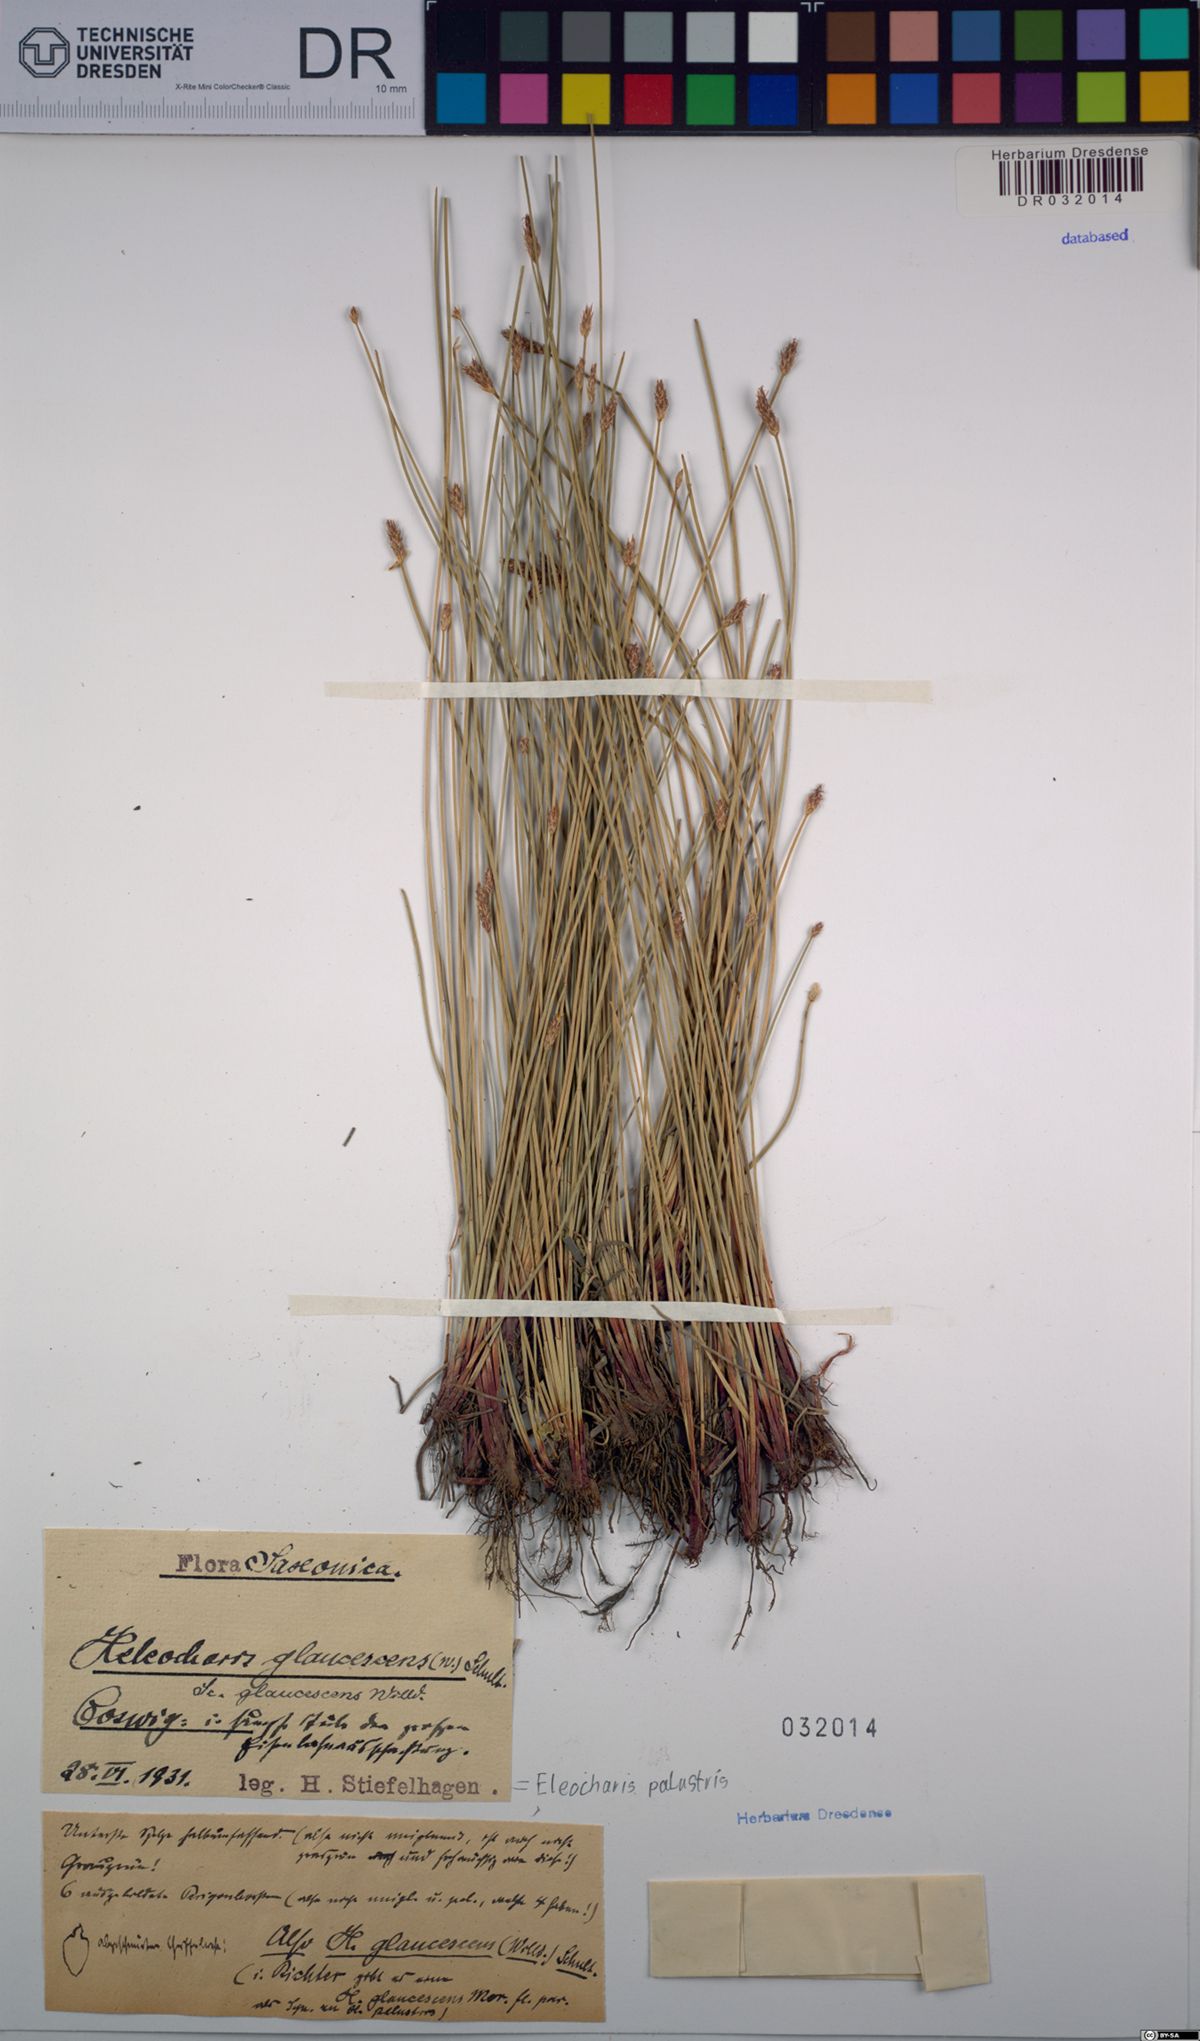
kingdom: Plantae
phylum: Tracheophyta
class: Liliopsida
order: Poales
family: Cyperaceae
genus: Eleocharis
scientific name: Eleocharis palustris
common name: Common spike-rush
